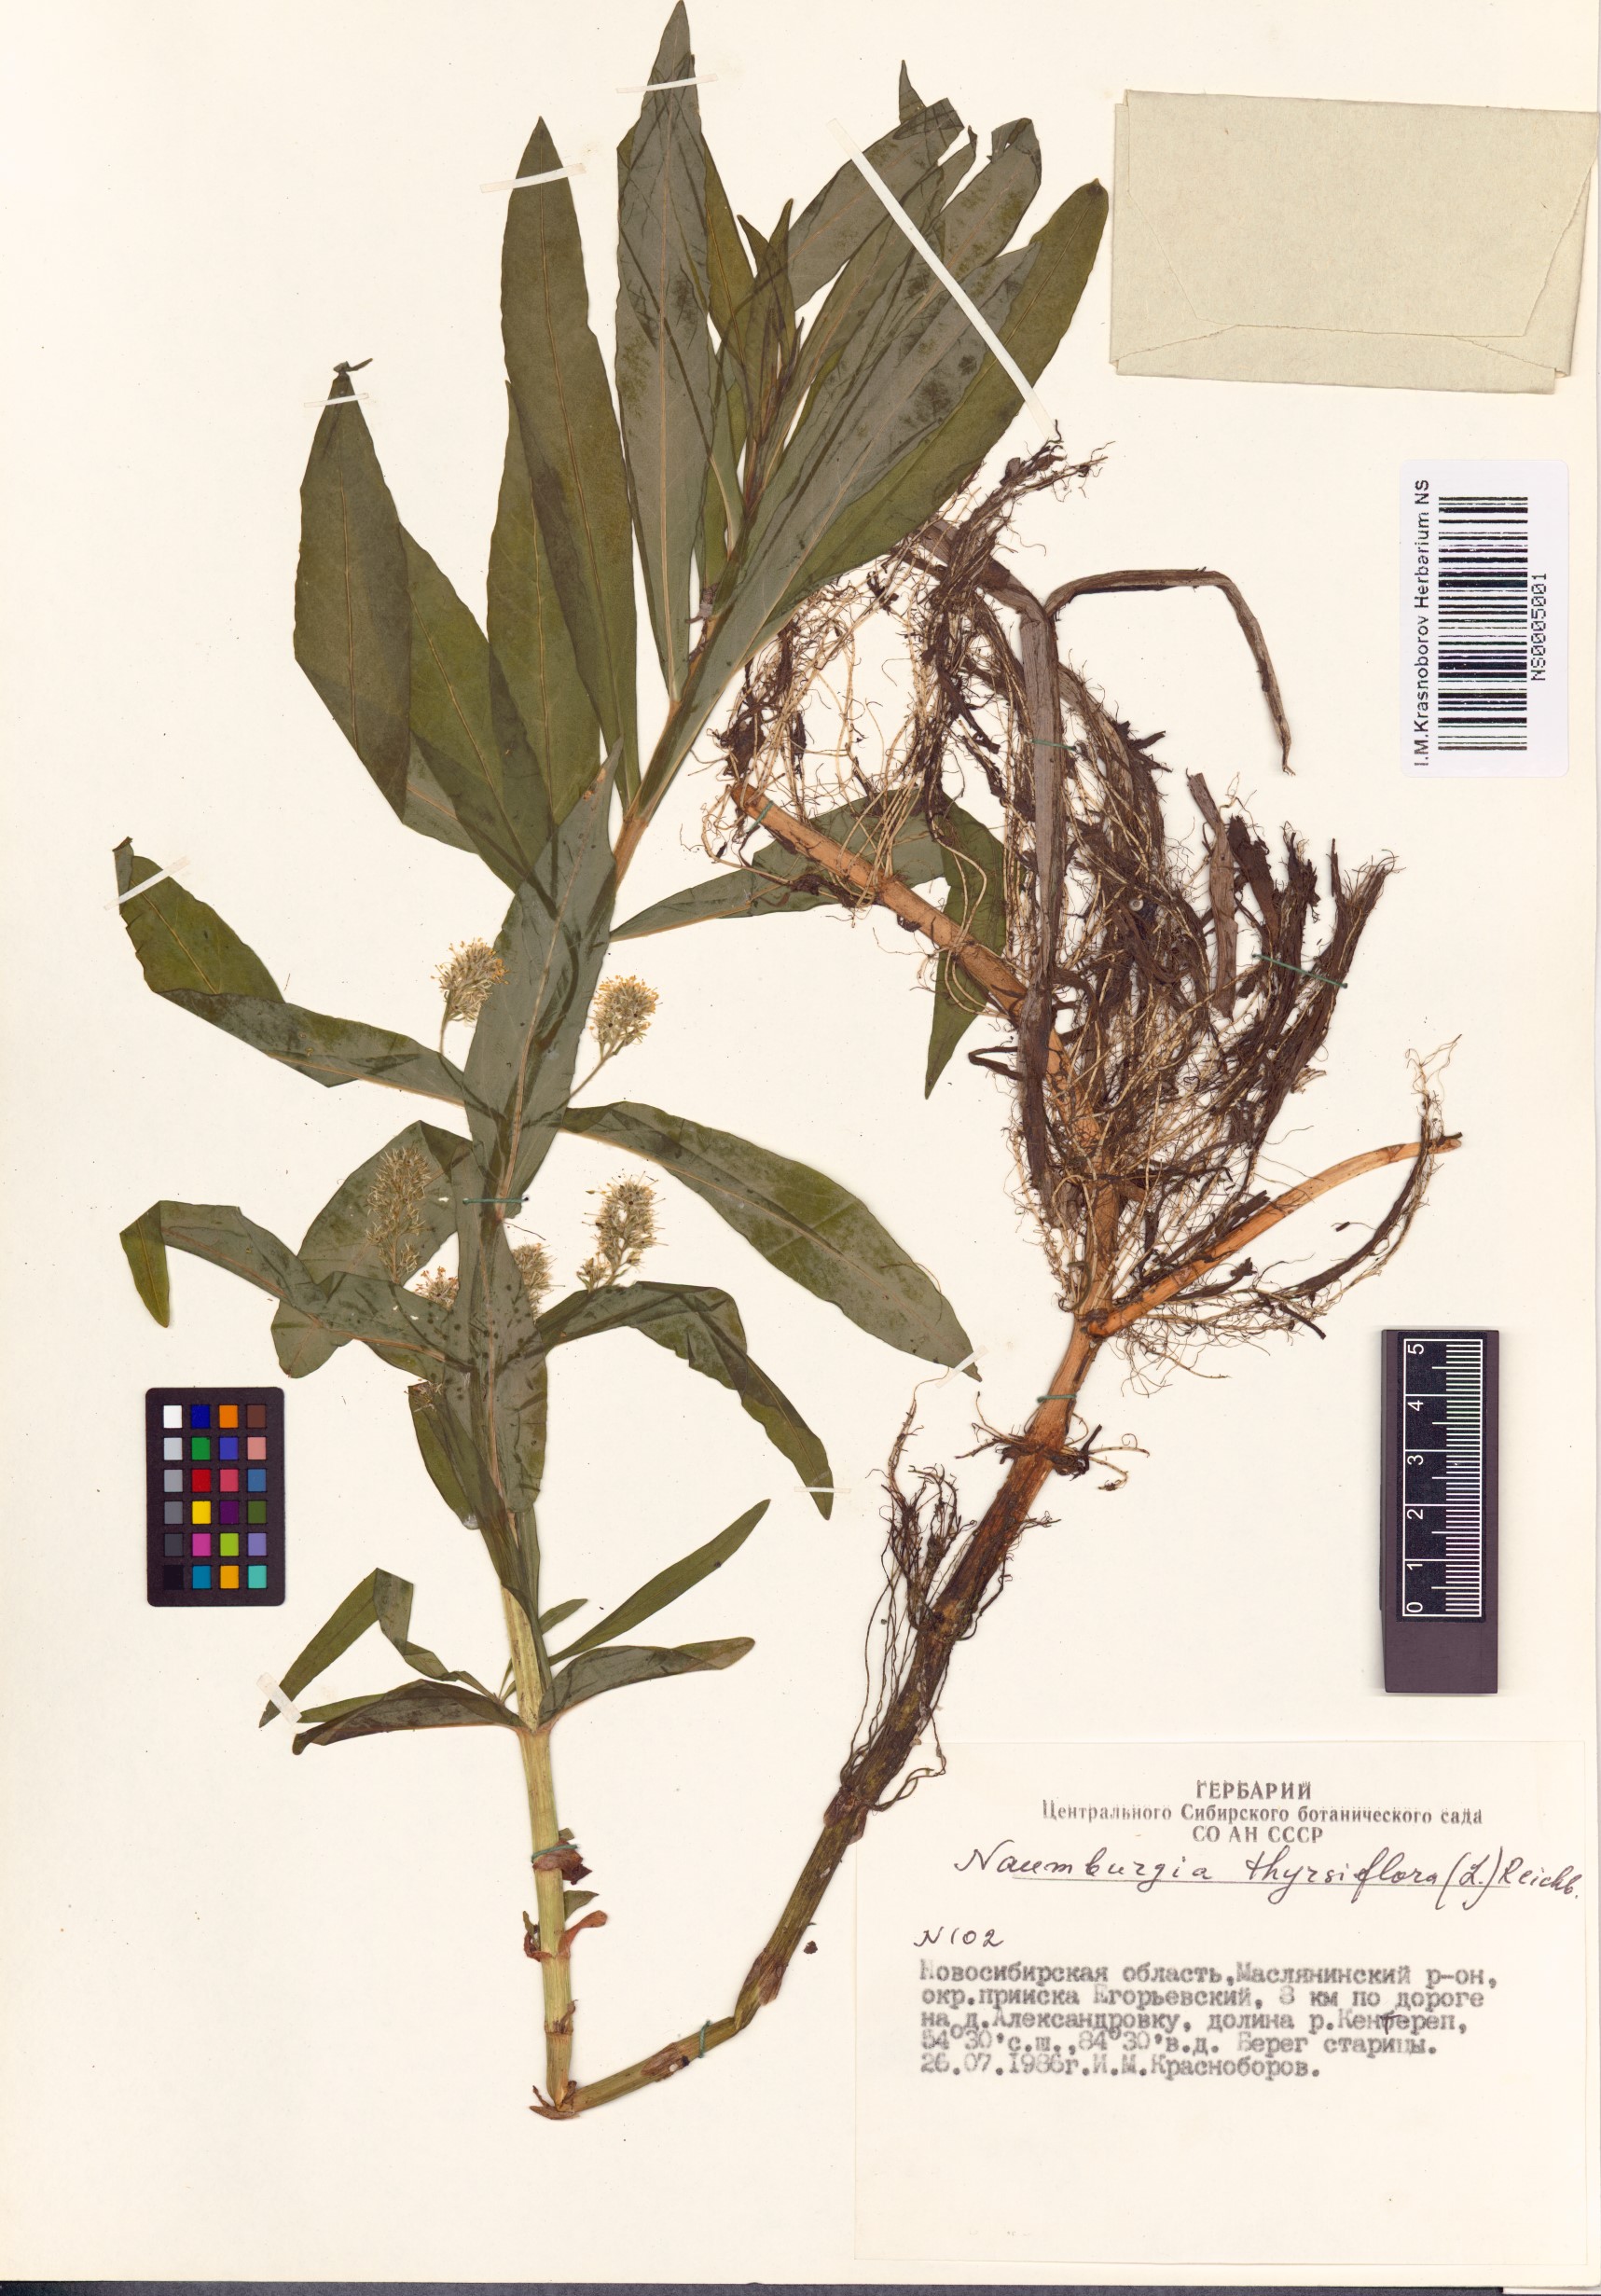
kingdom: Plantae
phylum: Tracheophyta
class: Magnoliopsida
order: Ericales
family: Primulaceae
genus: Lysimachia
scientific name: Lysimachia thyrsiflora
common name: Tufted loosestrife
